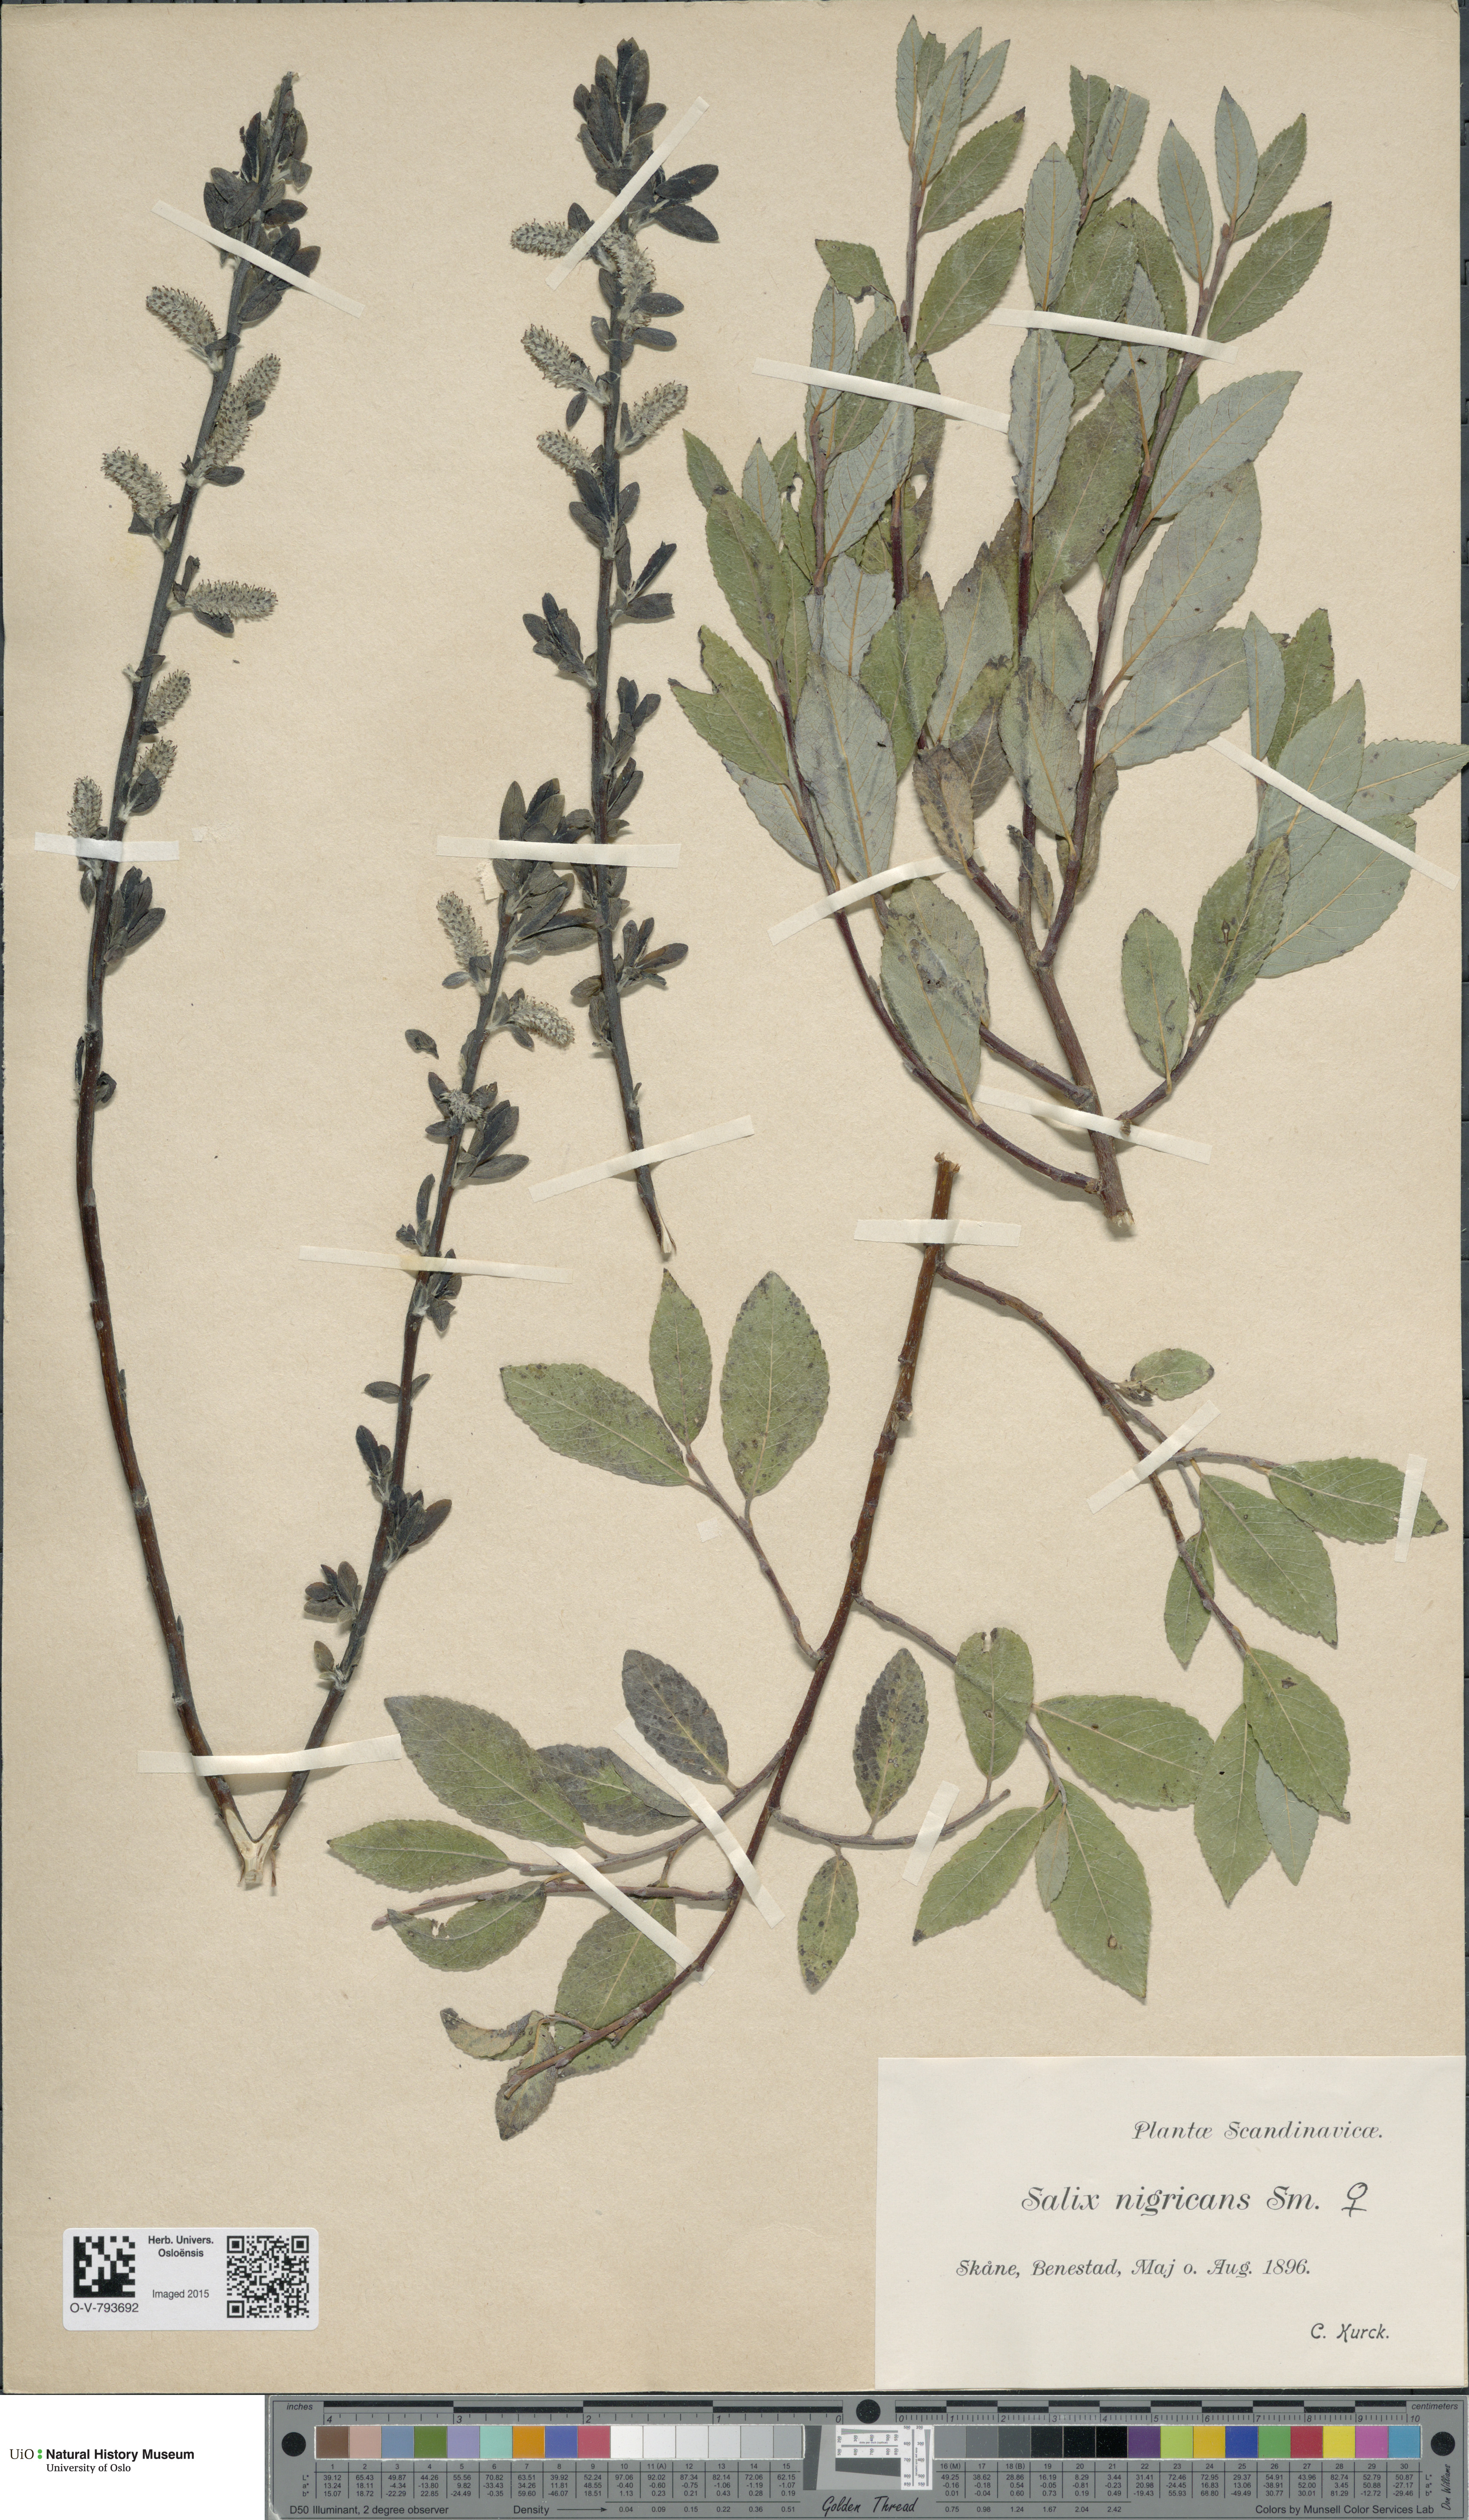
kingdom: Plantae
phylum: Tracheophyta
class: Magnoliopsida
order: Malpighiales
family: Salicaceae
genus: Salix
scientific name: Salix myrsinifolia
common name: Dark-leaved willow
